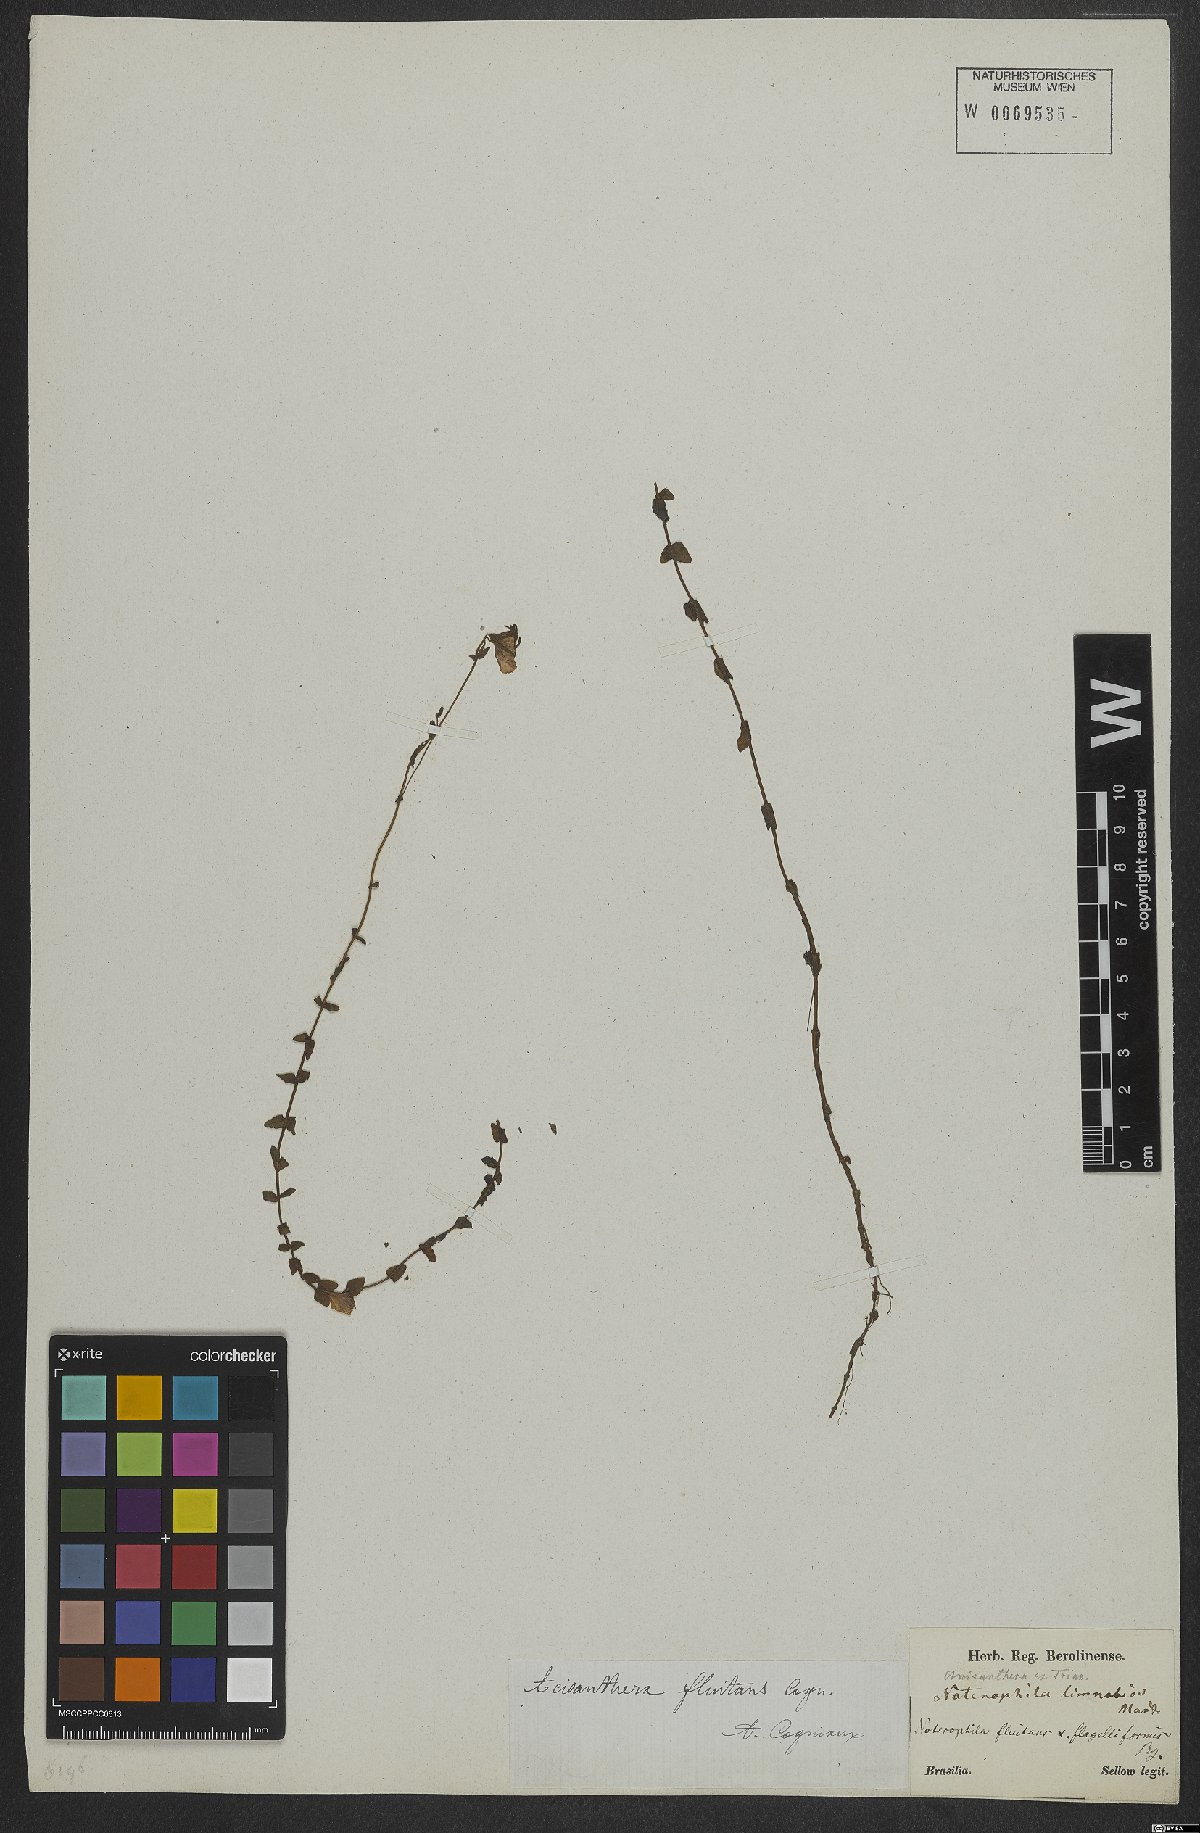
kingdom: Plantae
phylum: Tracheophyta
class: Magnoliopsida
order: Myrtales
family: Melastomataceae
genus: Noterophila
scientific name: Noterophila limnobios
